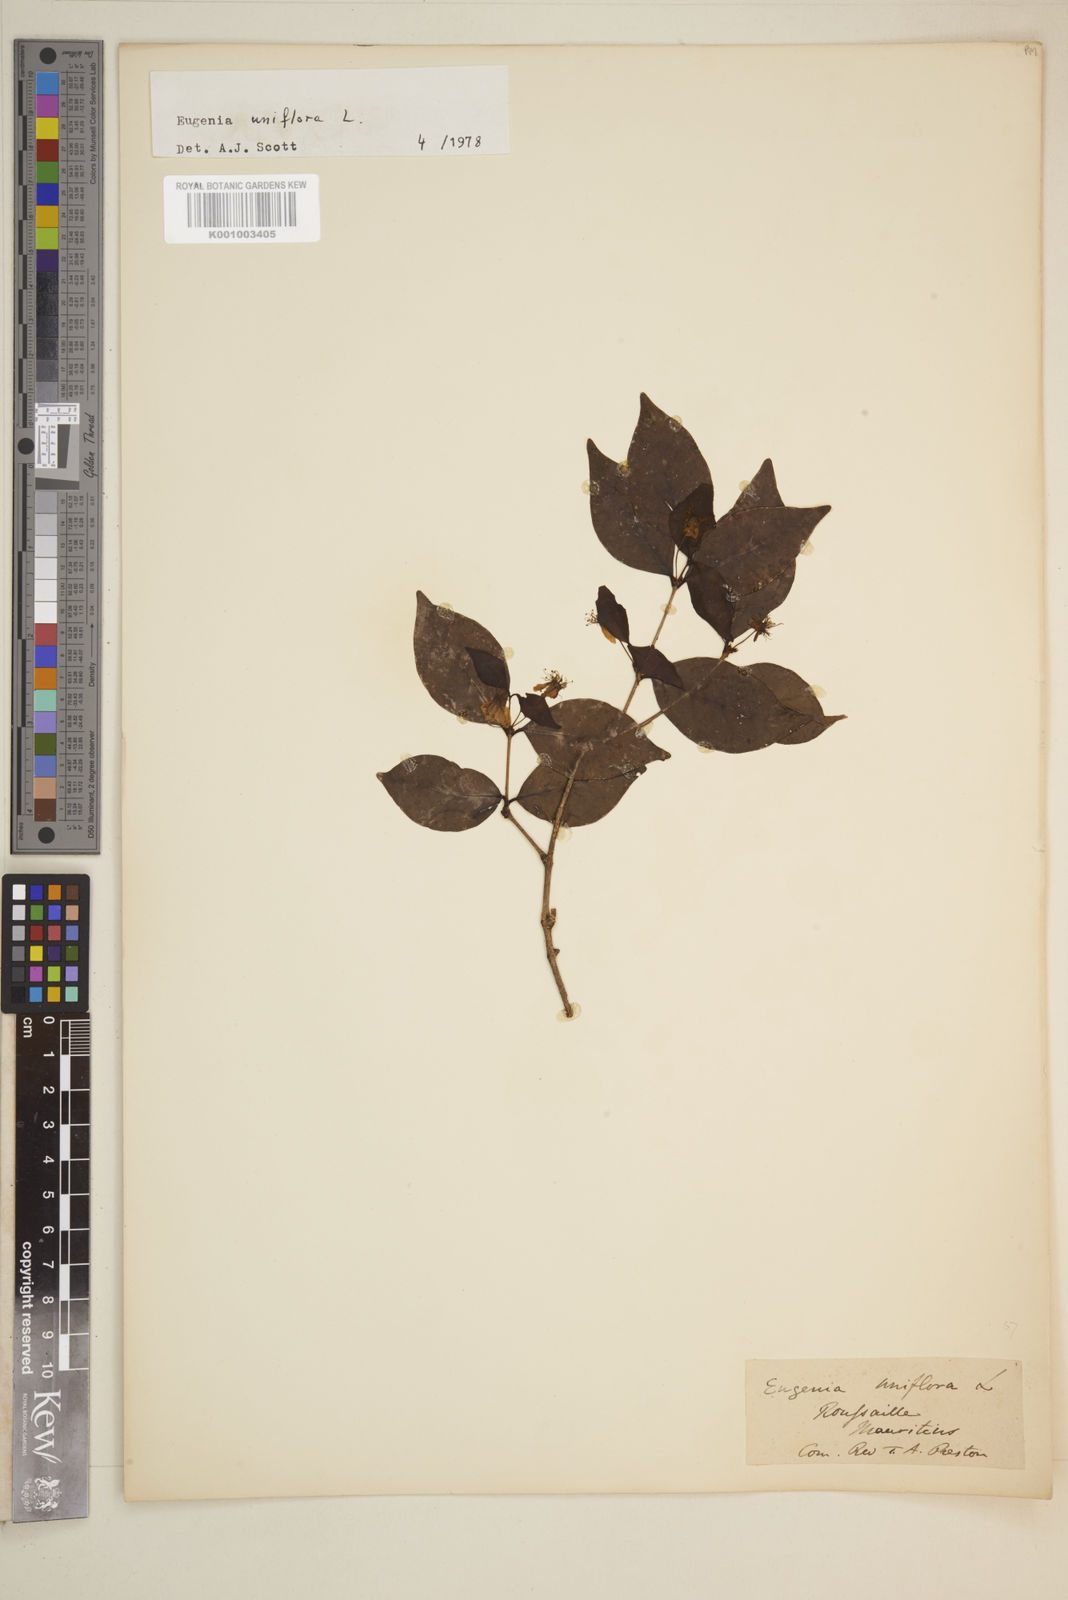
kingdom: Plantae
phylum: Tracheophyta
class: Magnoliopsida
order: Myrtales
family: Myrtaceae
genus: Eugenia
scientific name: Eugenia uniflora
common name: Surinam cherry
